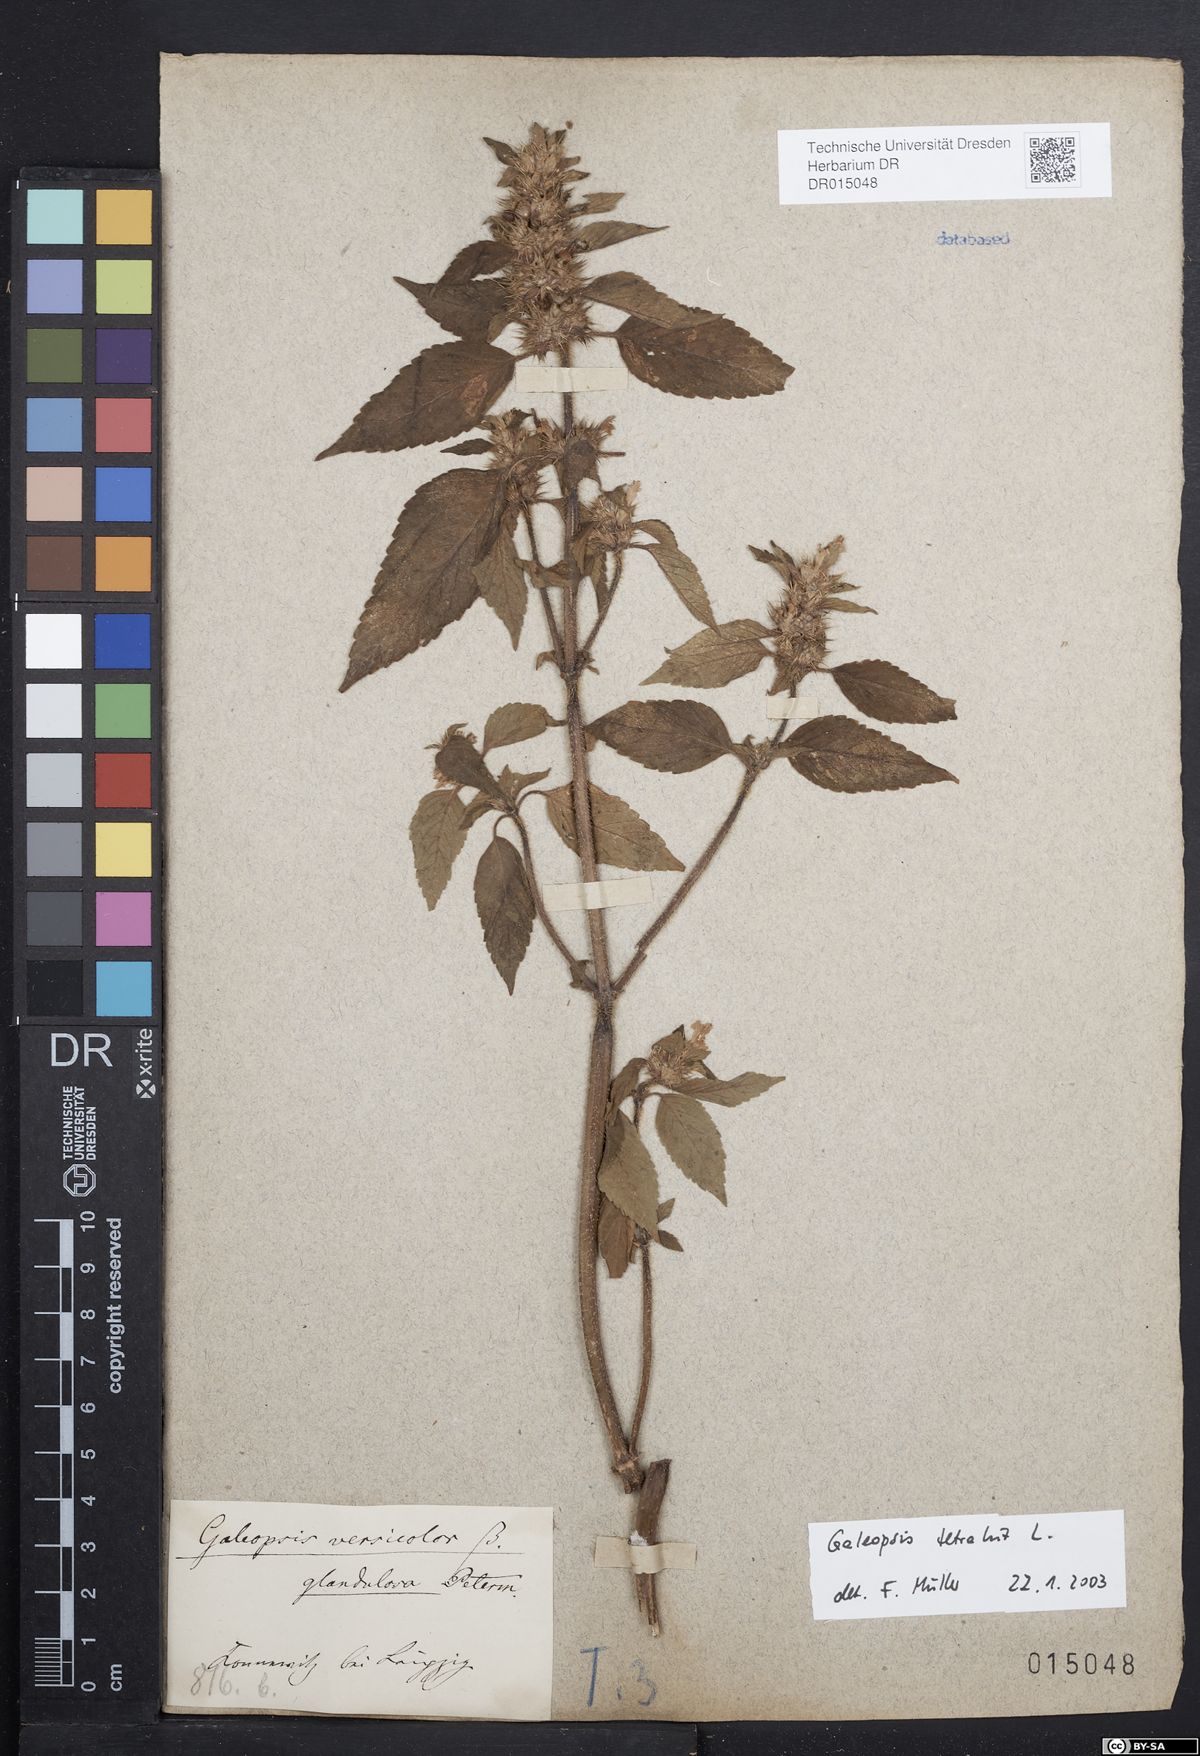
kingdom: Plantae
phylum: Tracheophyta
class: Magnoliopsida
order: Lamiales
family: Lamiaceae
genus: Galeopsis
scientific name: Galeopsis tetrahit
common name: Common hemp-nettle
